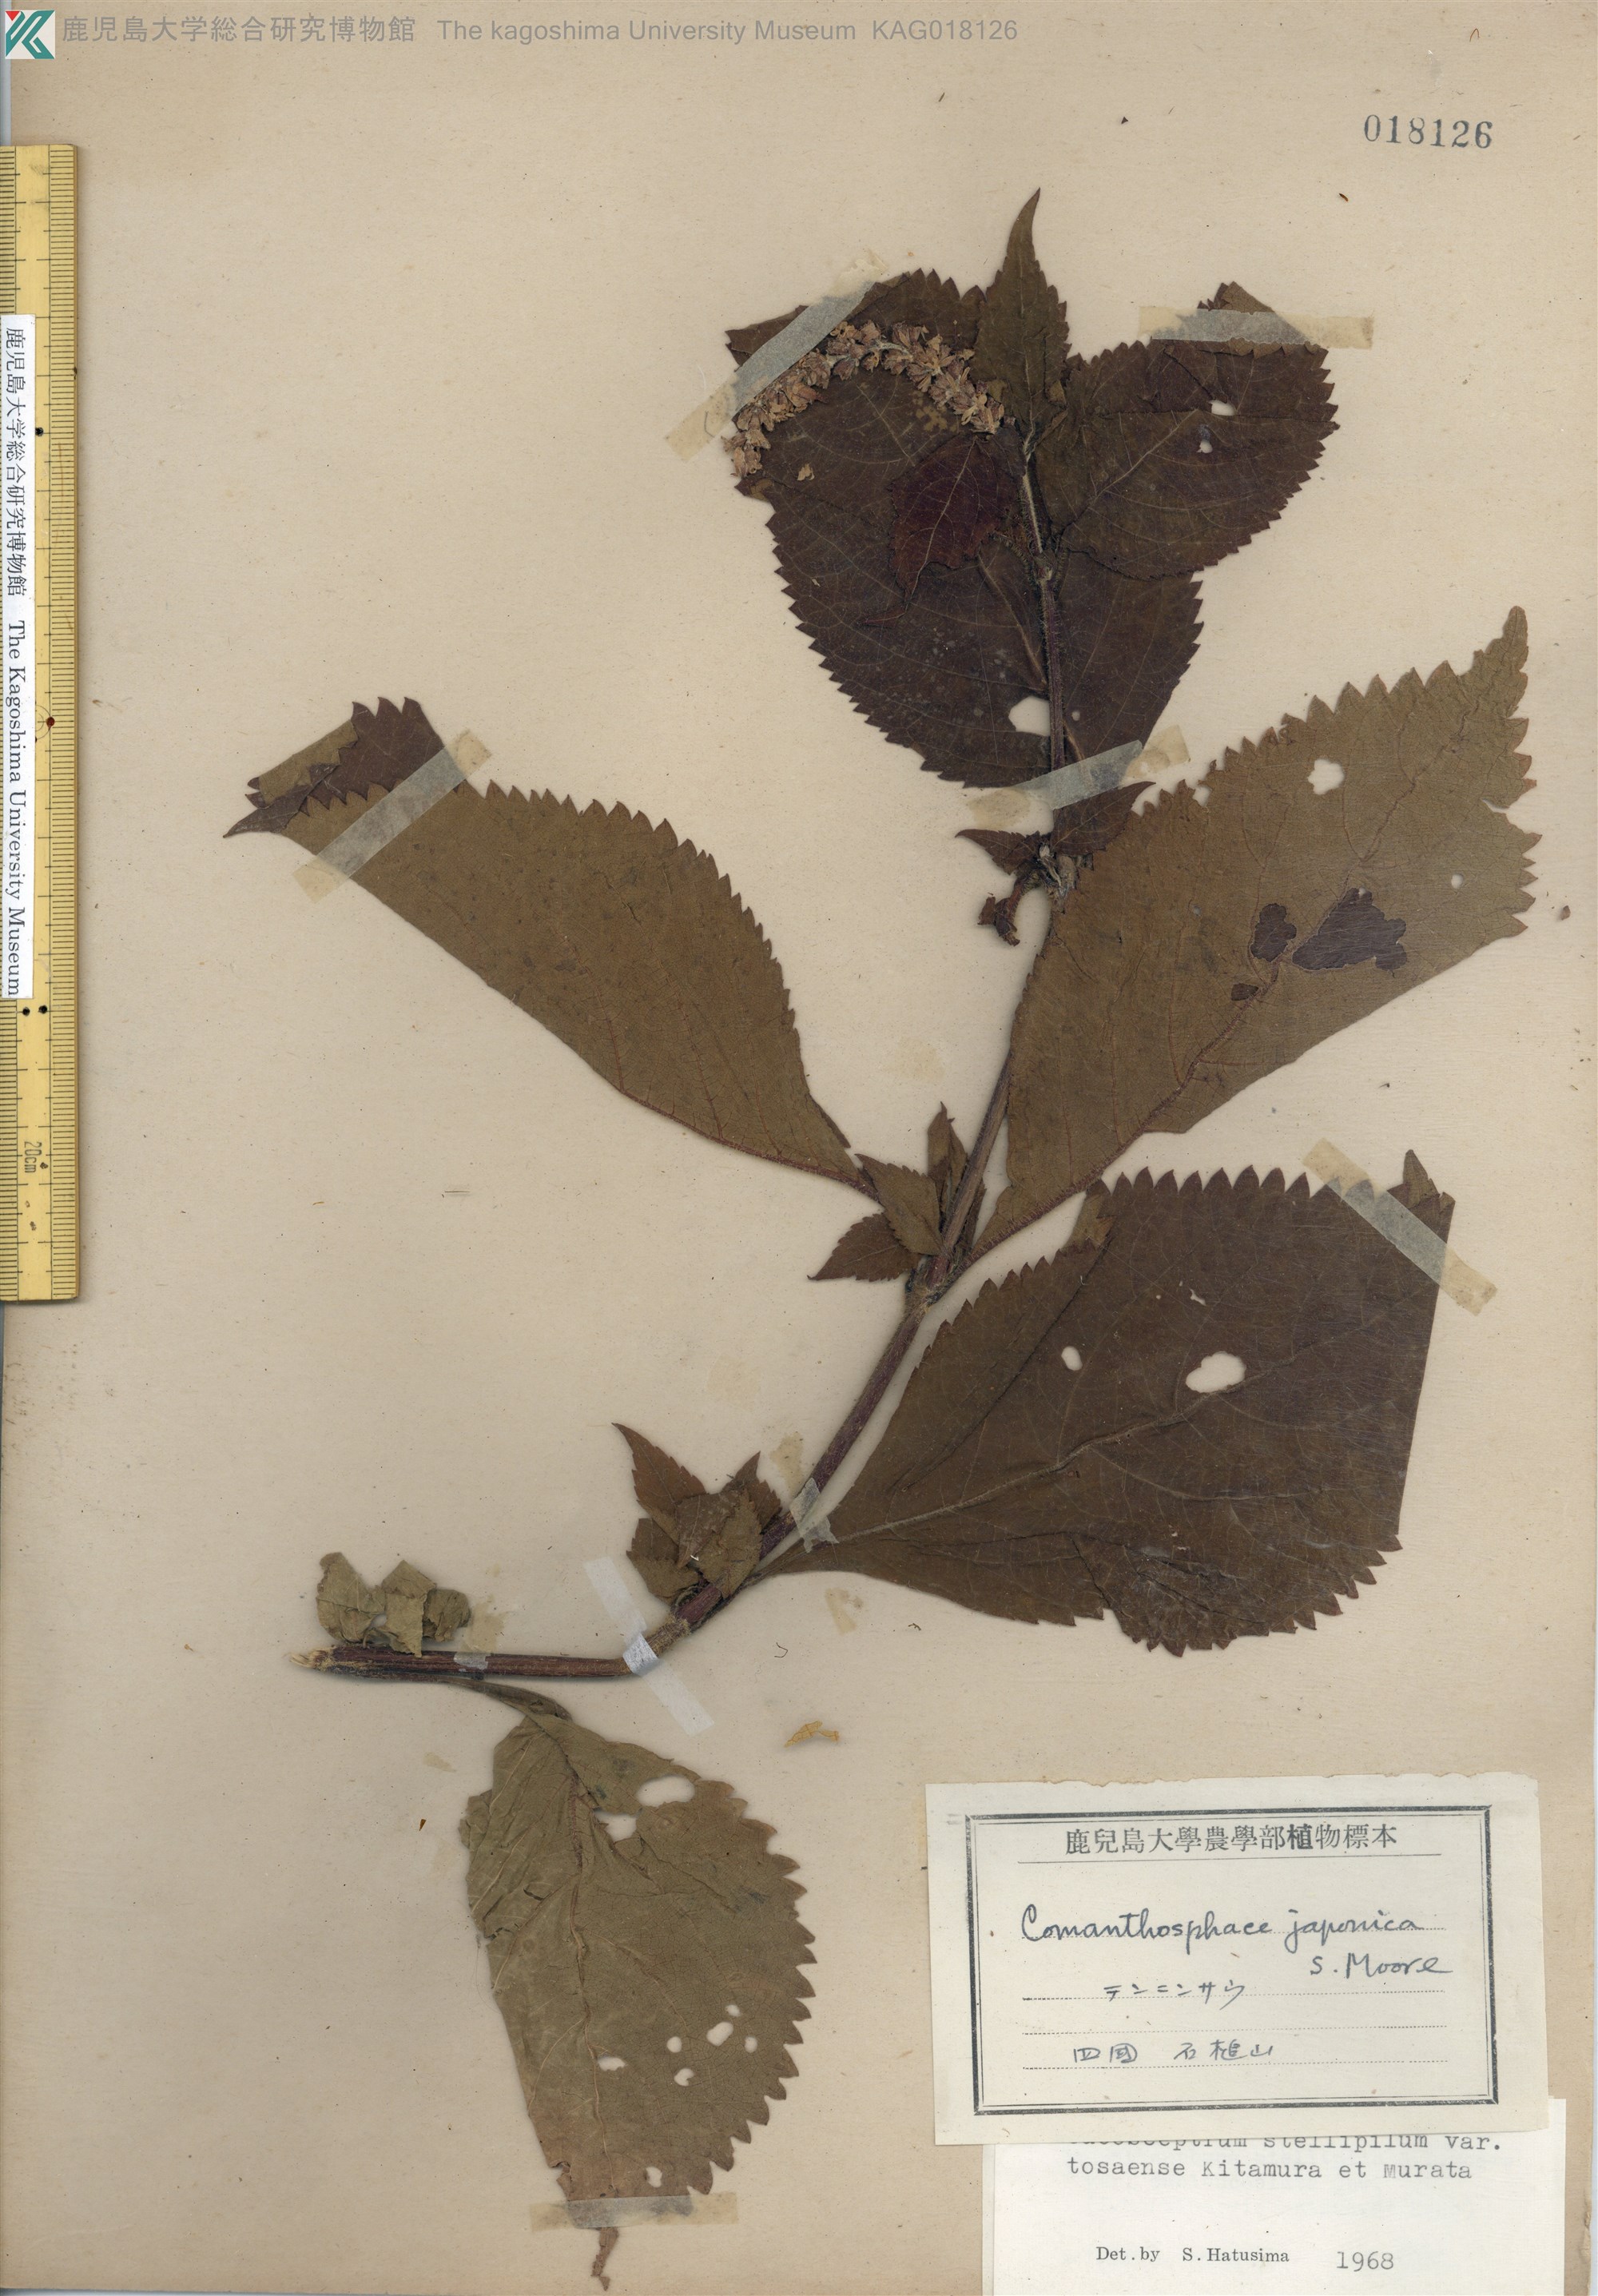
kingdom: Plantae
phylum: Tracheophyta
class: Magnoliopsida
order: Lamiales
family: Lamiaceae
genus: Comanthosphace
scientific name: Comanthosphace japonica
